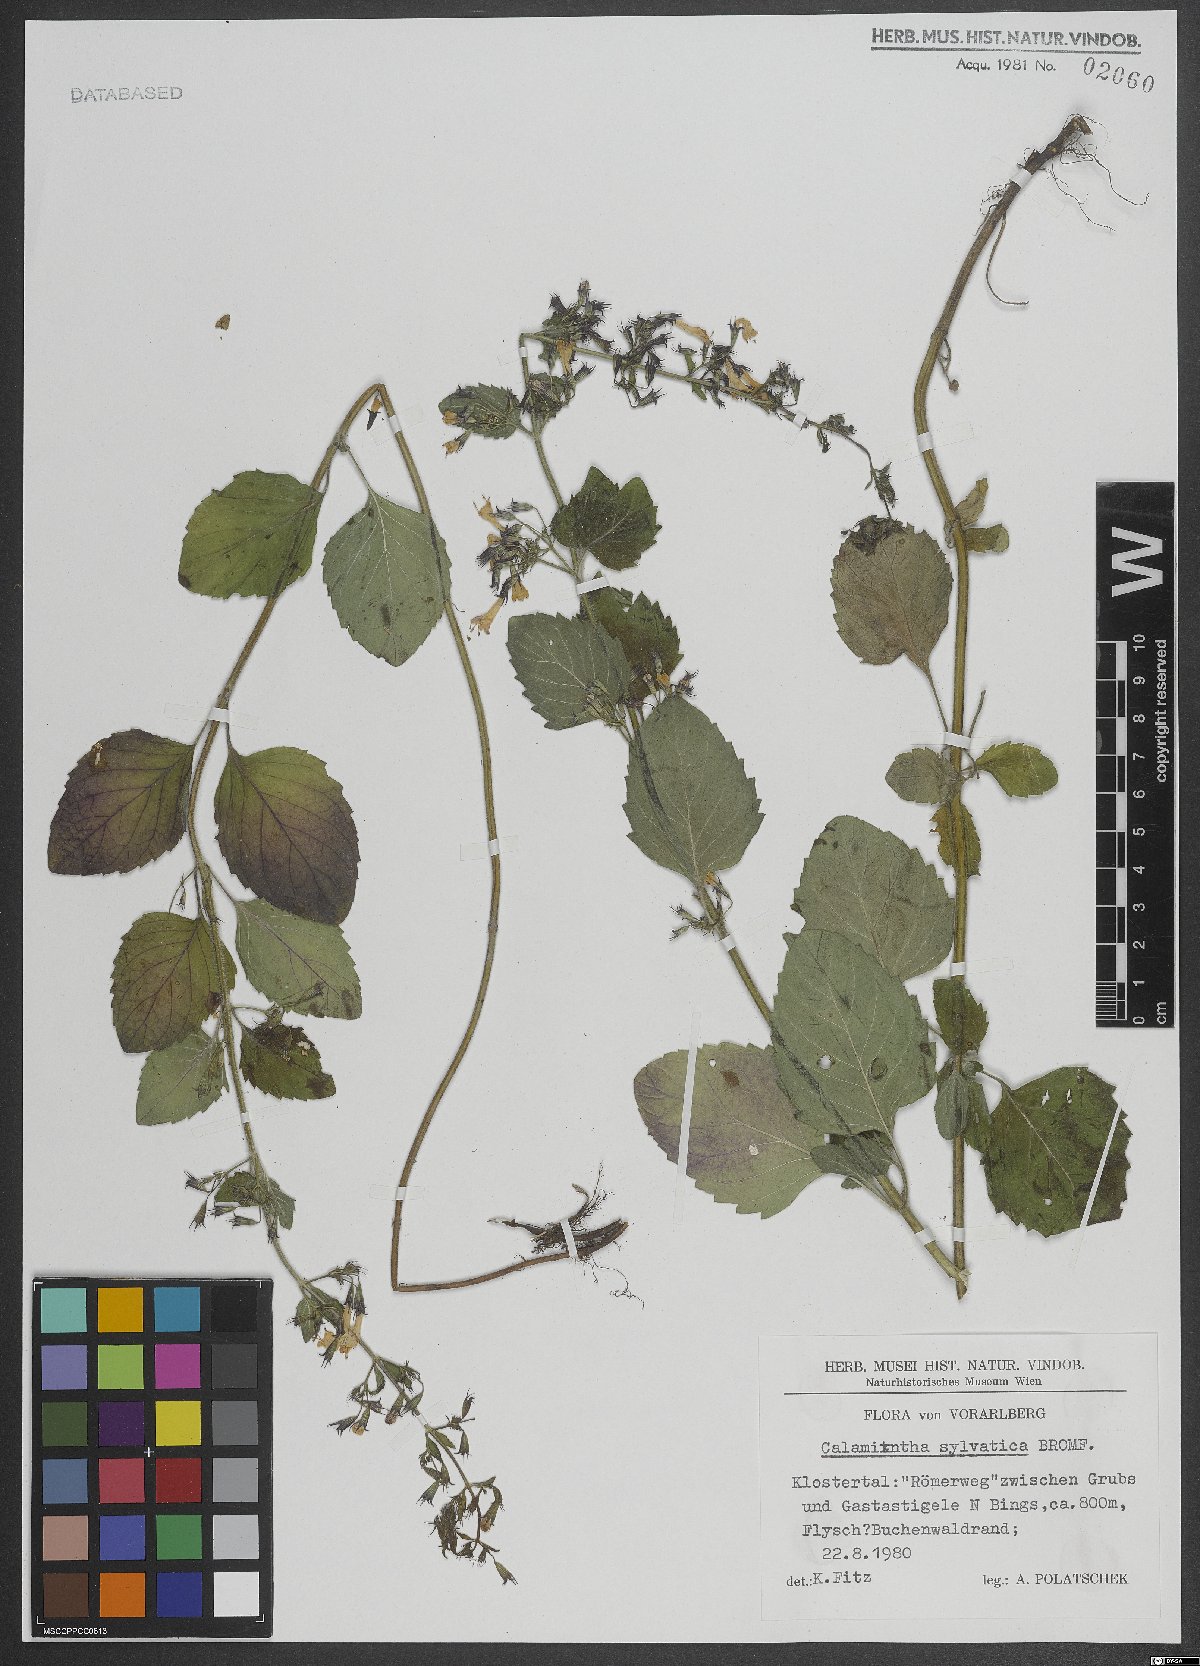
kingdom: Plantae
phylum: Tracheophyta
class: Magnoliopsida
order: Lamiales
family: Lamiaceae
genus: Clinopodium
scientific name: Clinopodium menthifolium
